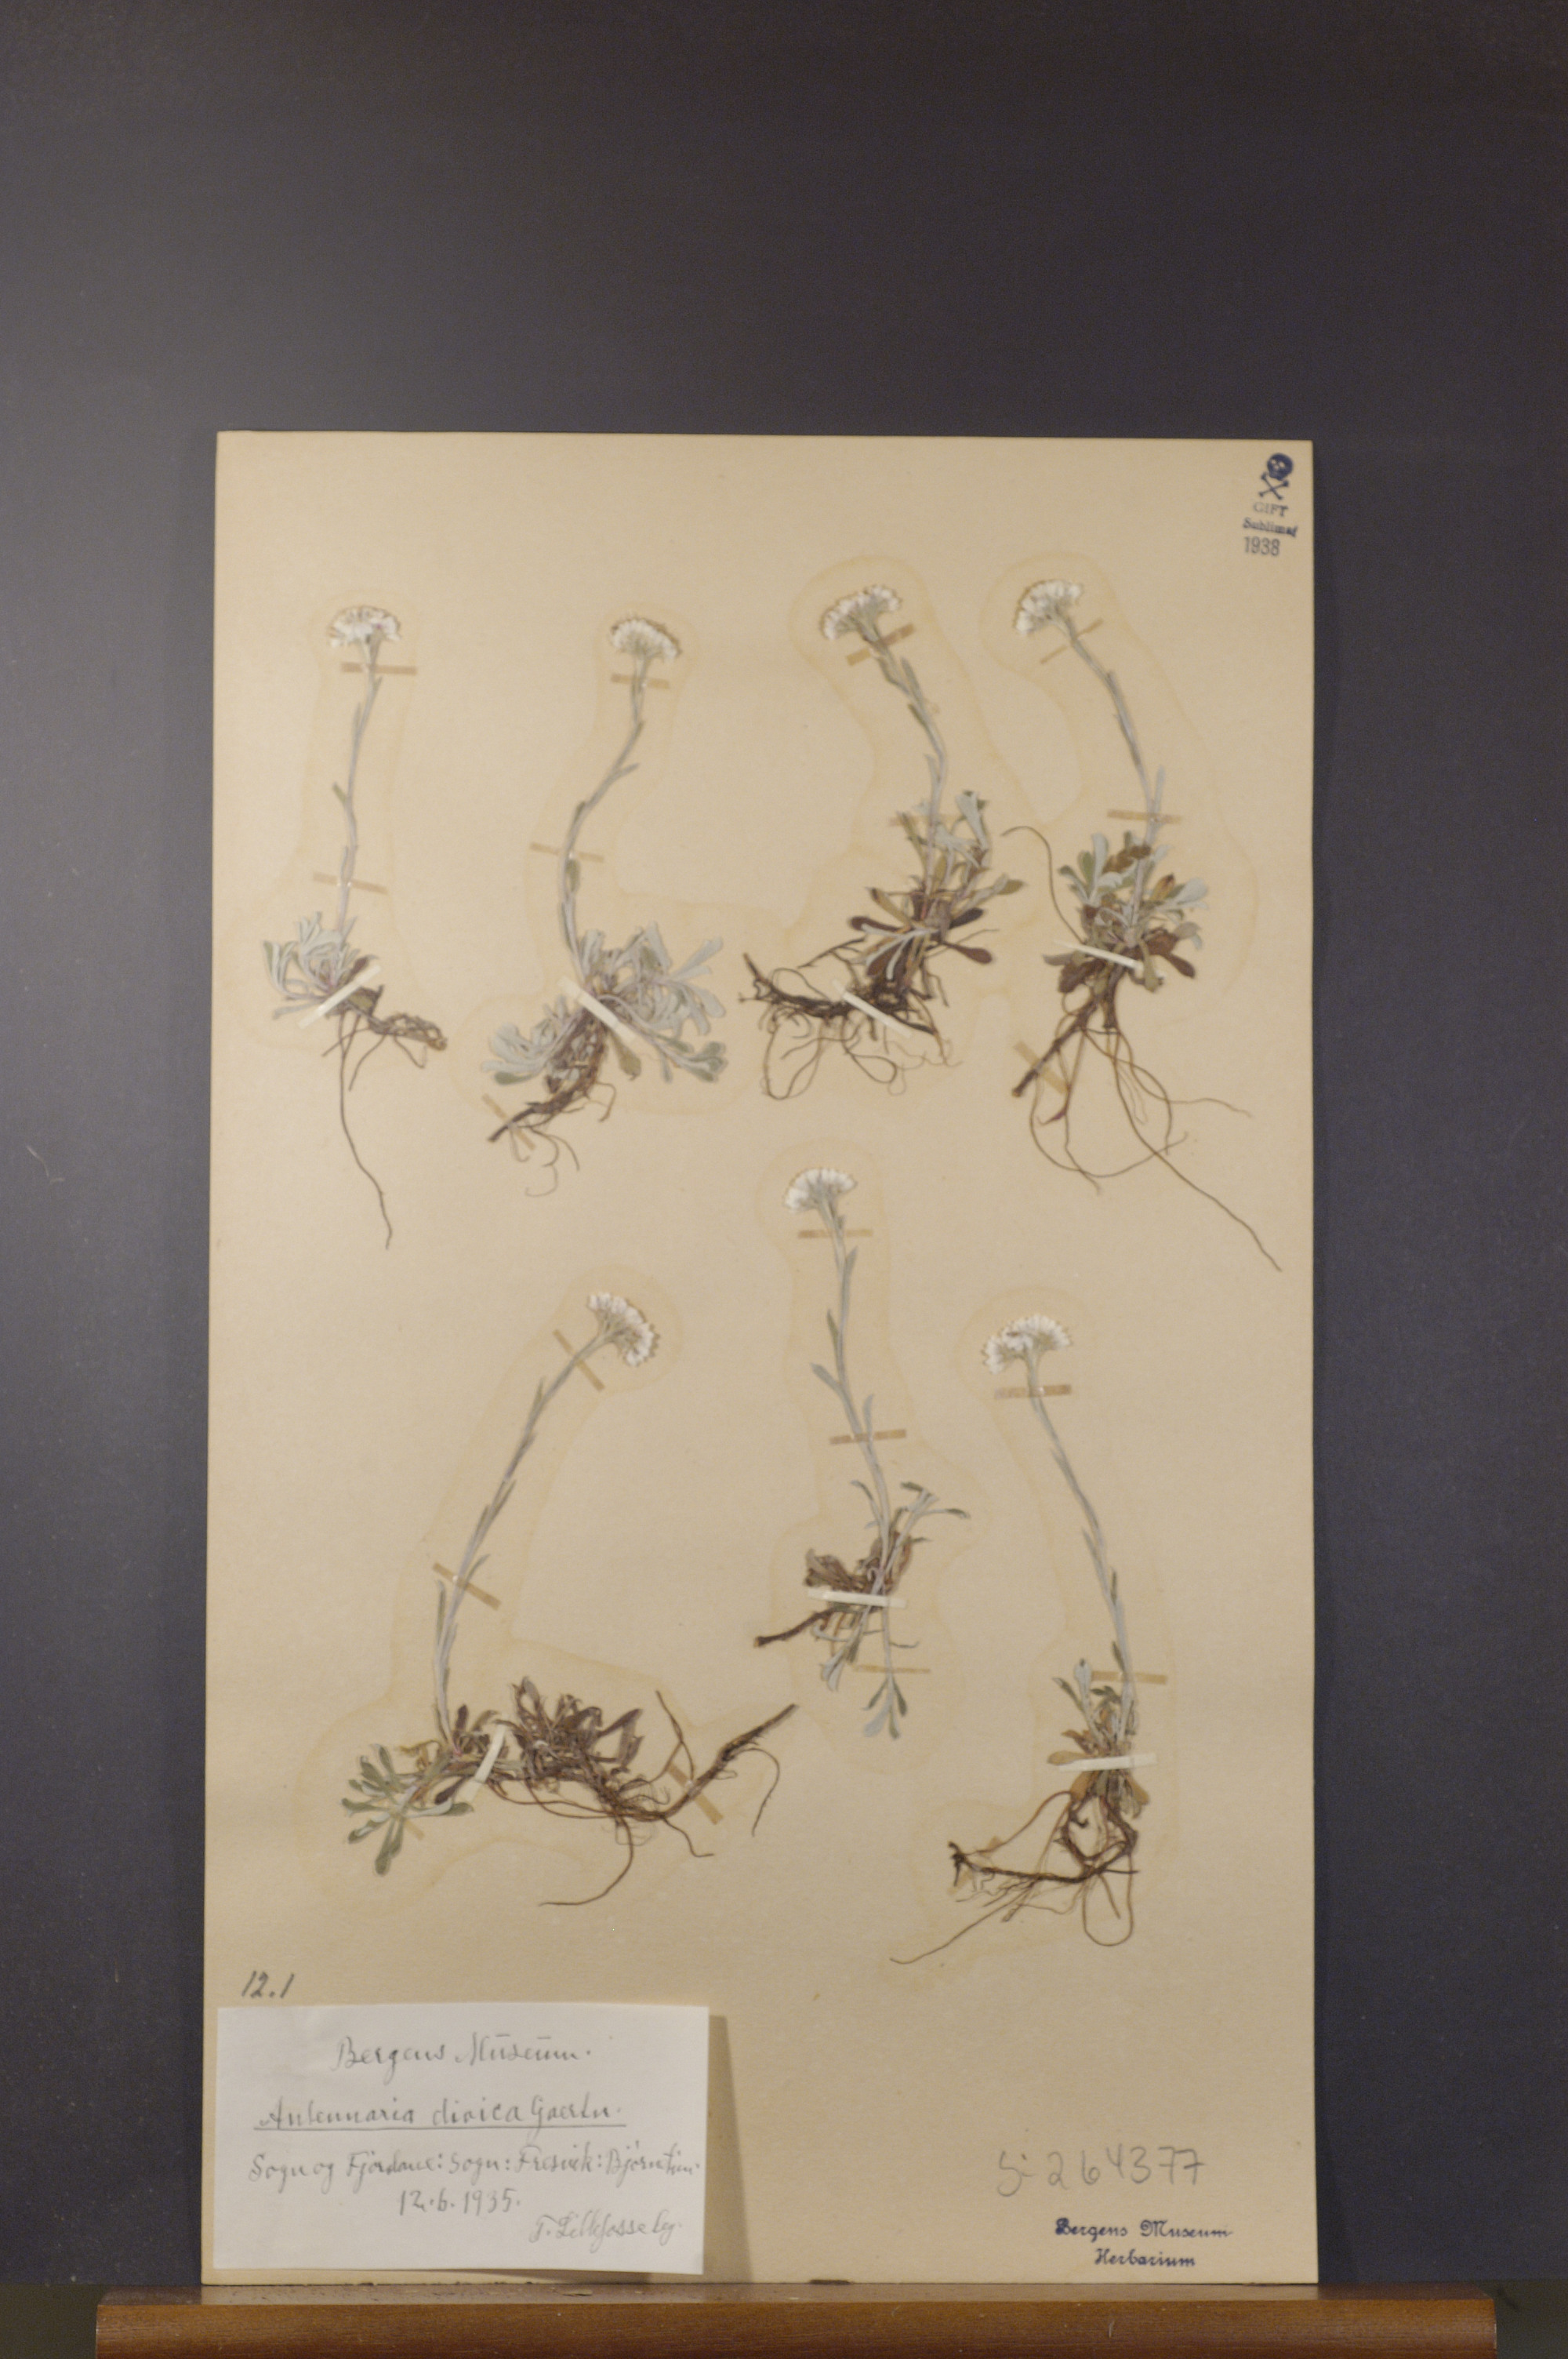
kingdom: Plantae
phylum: Tracheophyta
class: Magnoliopsida
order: Asterales
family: Asteraceae
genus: Antennaria
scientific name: Antennaria dioica
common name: Mountain everlasting
